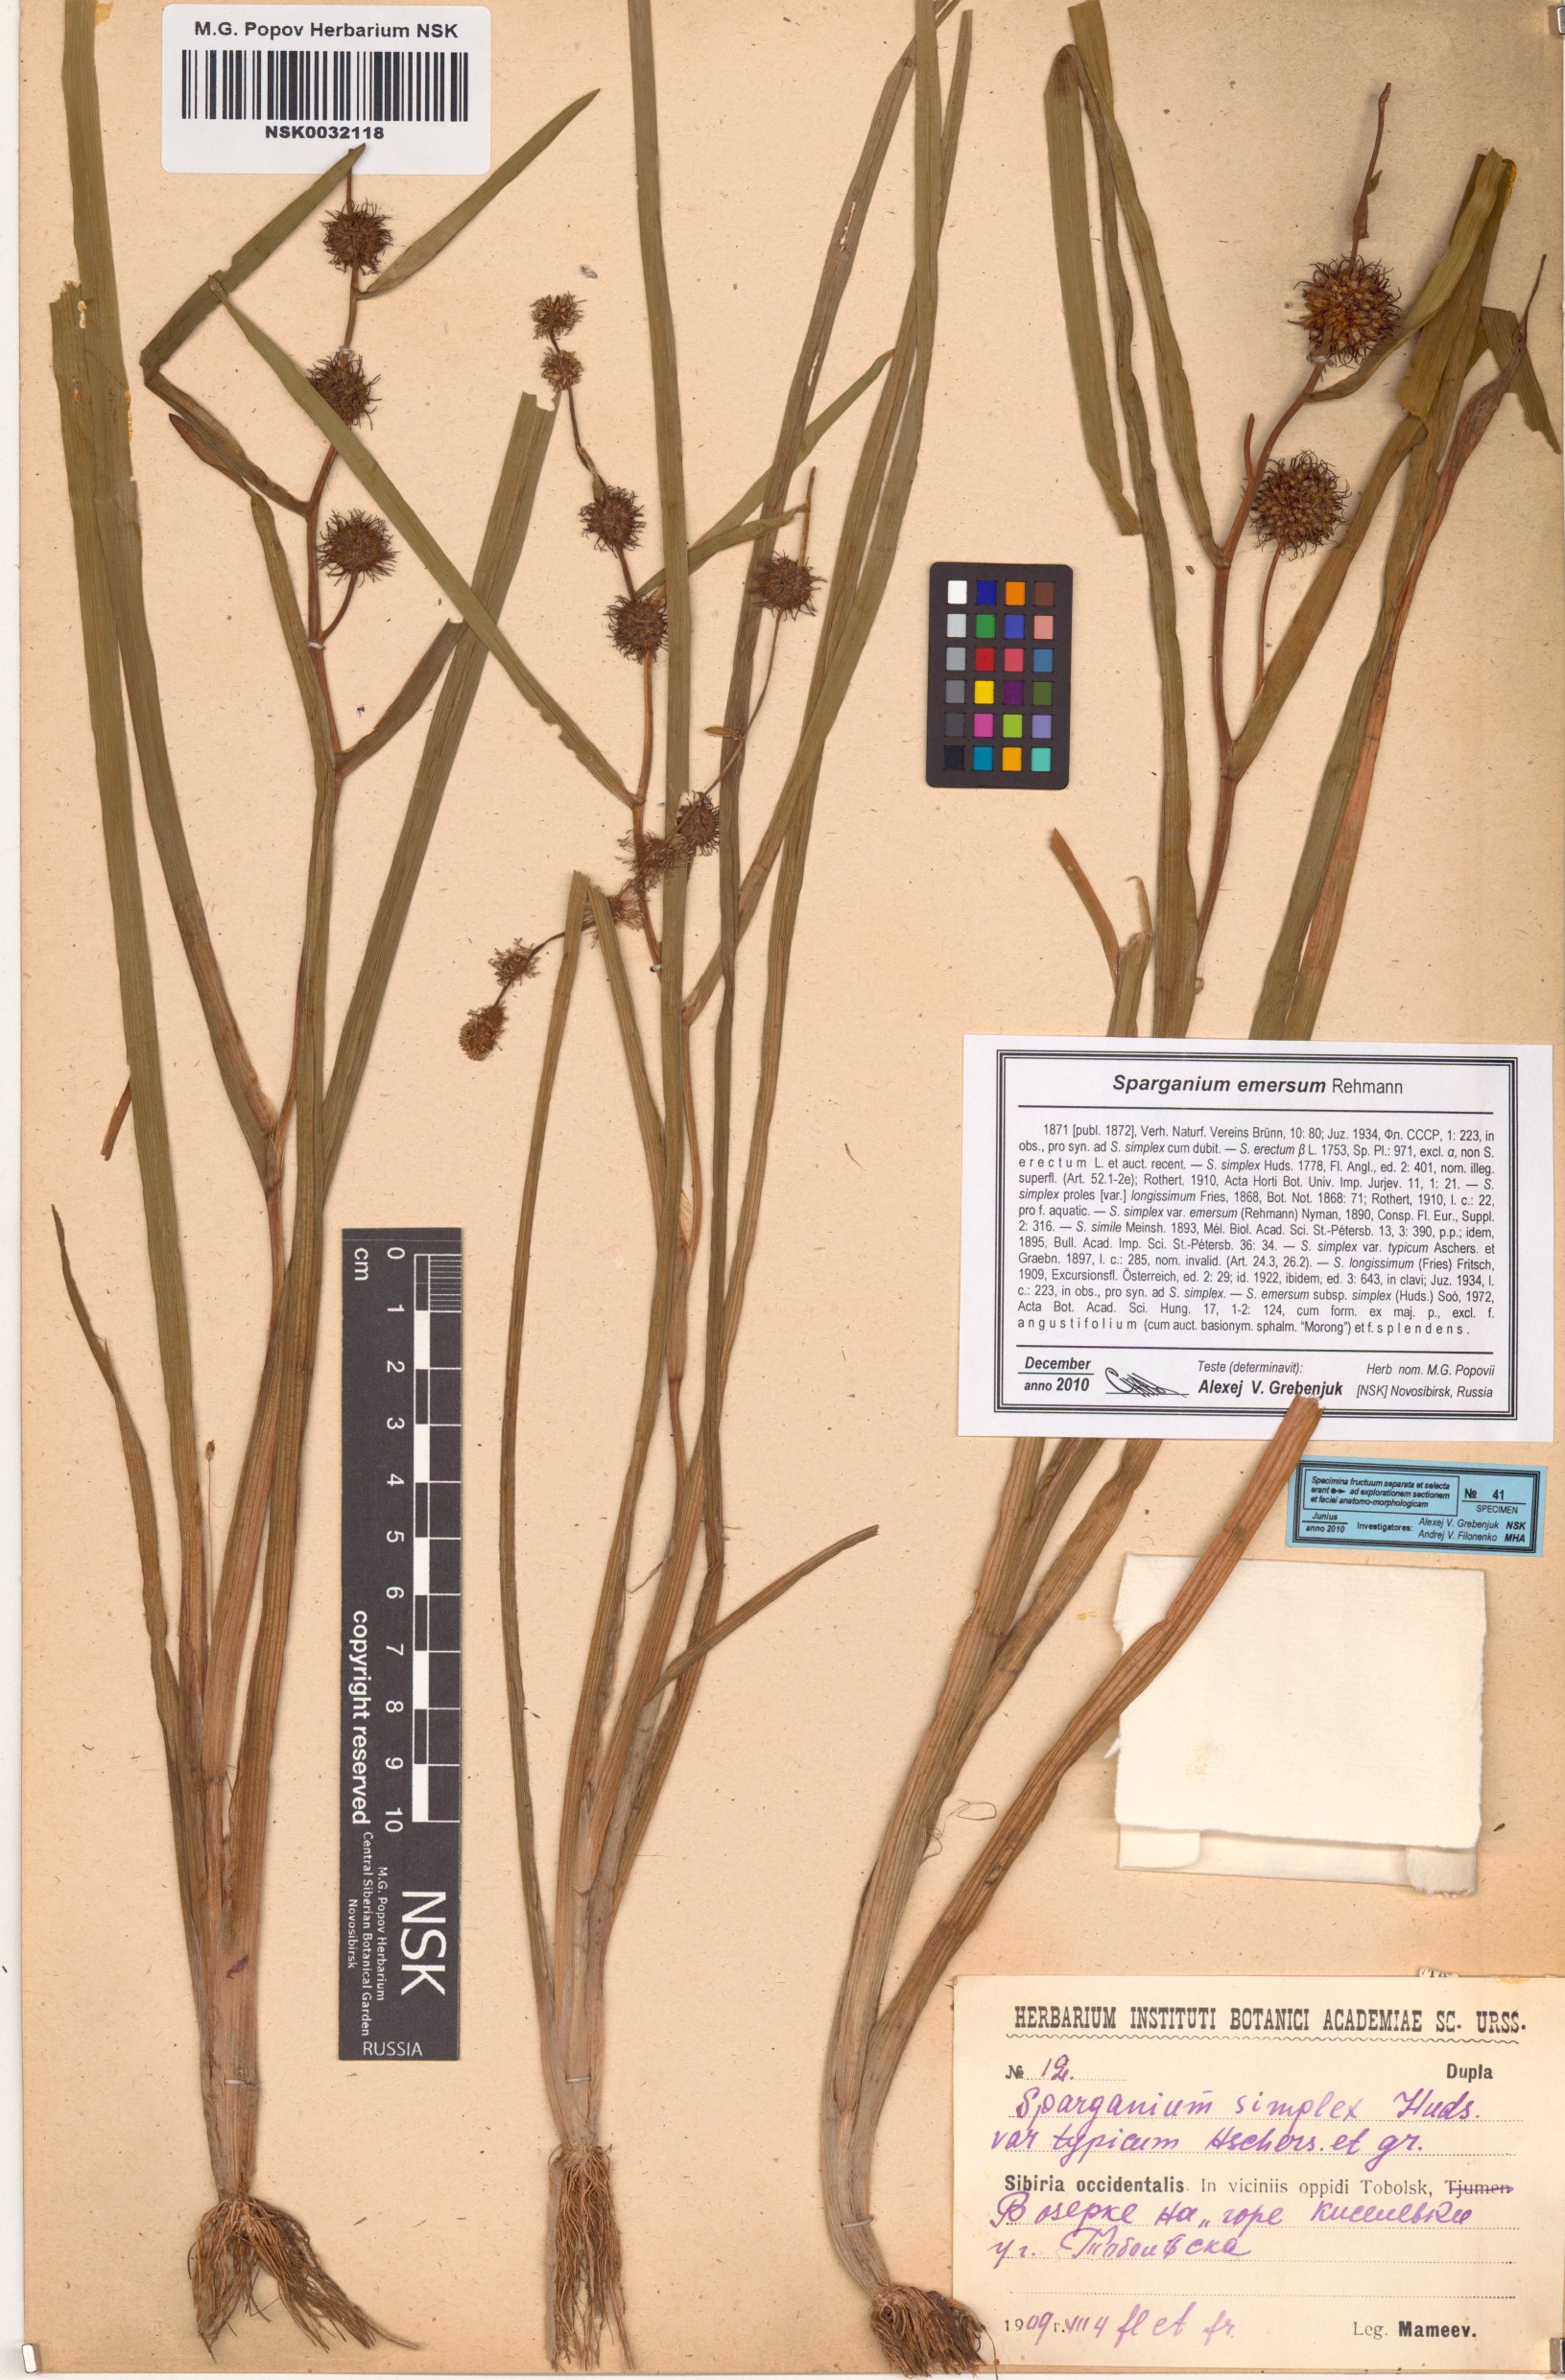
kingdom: Plantae
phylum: Tracheophyta
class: Liliopsida
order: Poales
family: Typhaceae
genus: Sparganium
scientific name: Sparganium emersum
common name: Unbranched bur-reed
